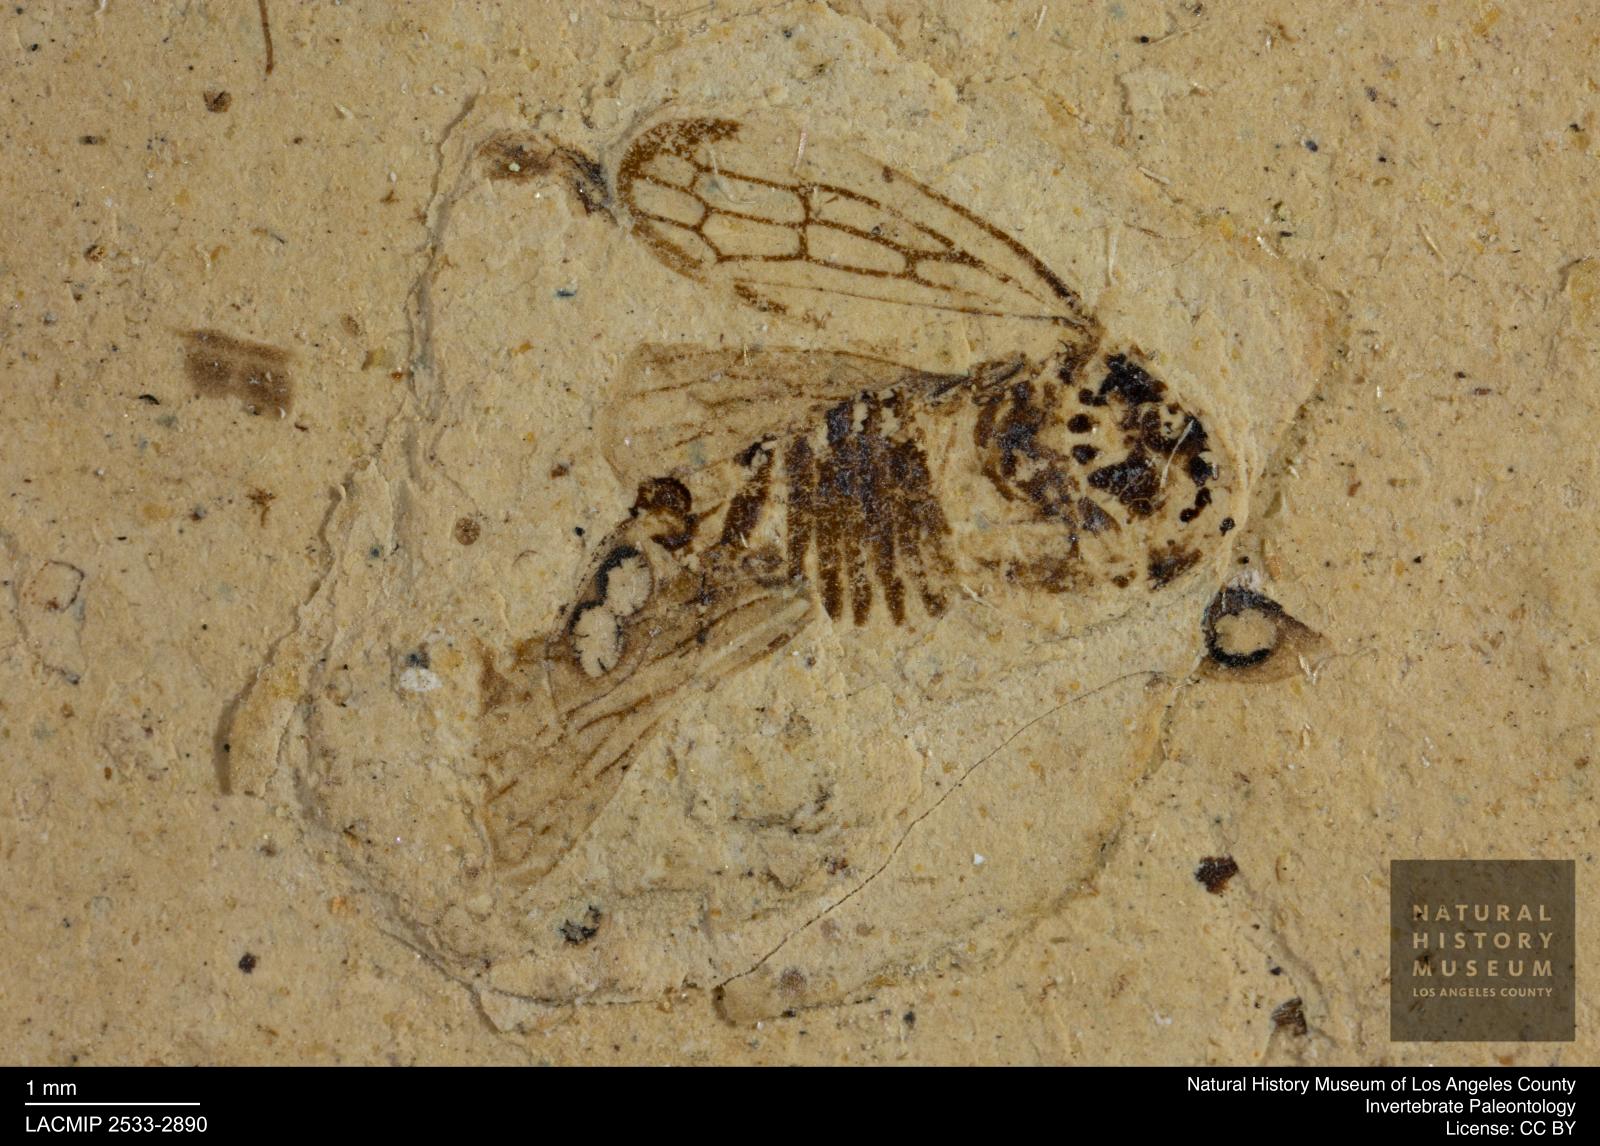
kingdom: Animalia
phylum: Arthropoda
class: Insecta
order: Hemiptera
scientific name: Hemiptera
